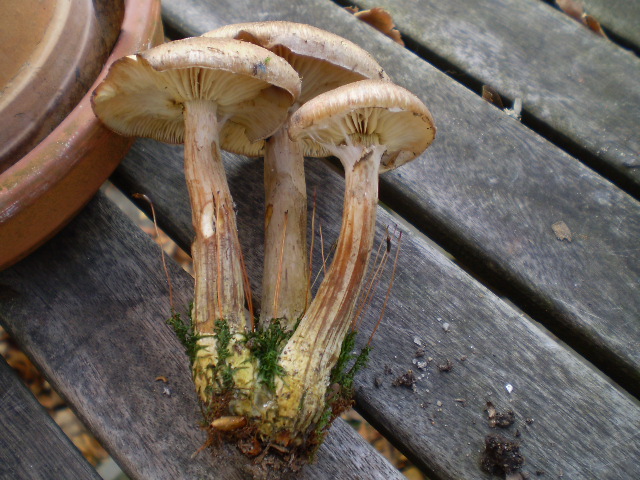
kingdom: Fungi
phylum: Basidiomycota
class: Agaricomycetes
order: Agaricales
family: Physalacriaceae
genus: Armillaria
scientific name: Armillaria cepistipes
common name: knoldfodet honningsvamp
